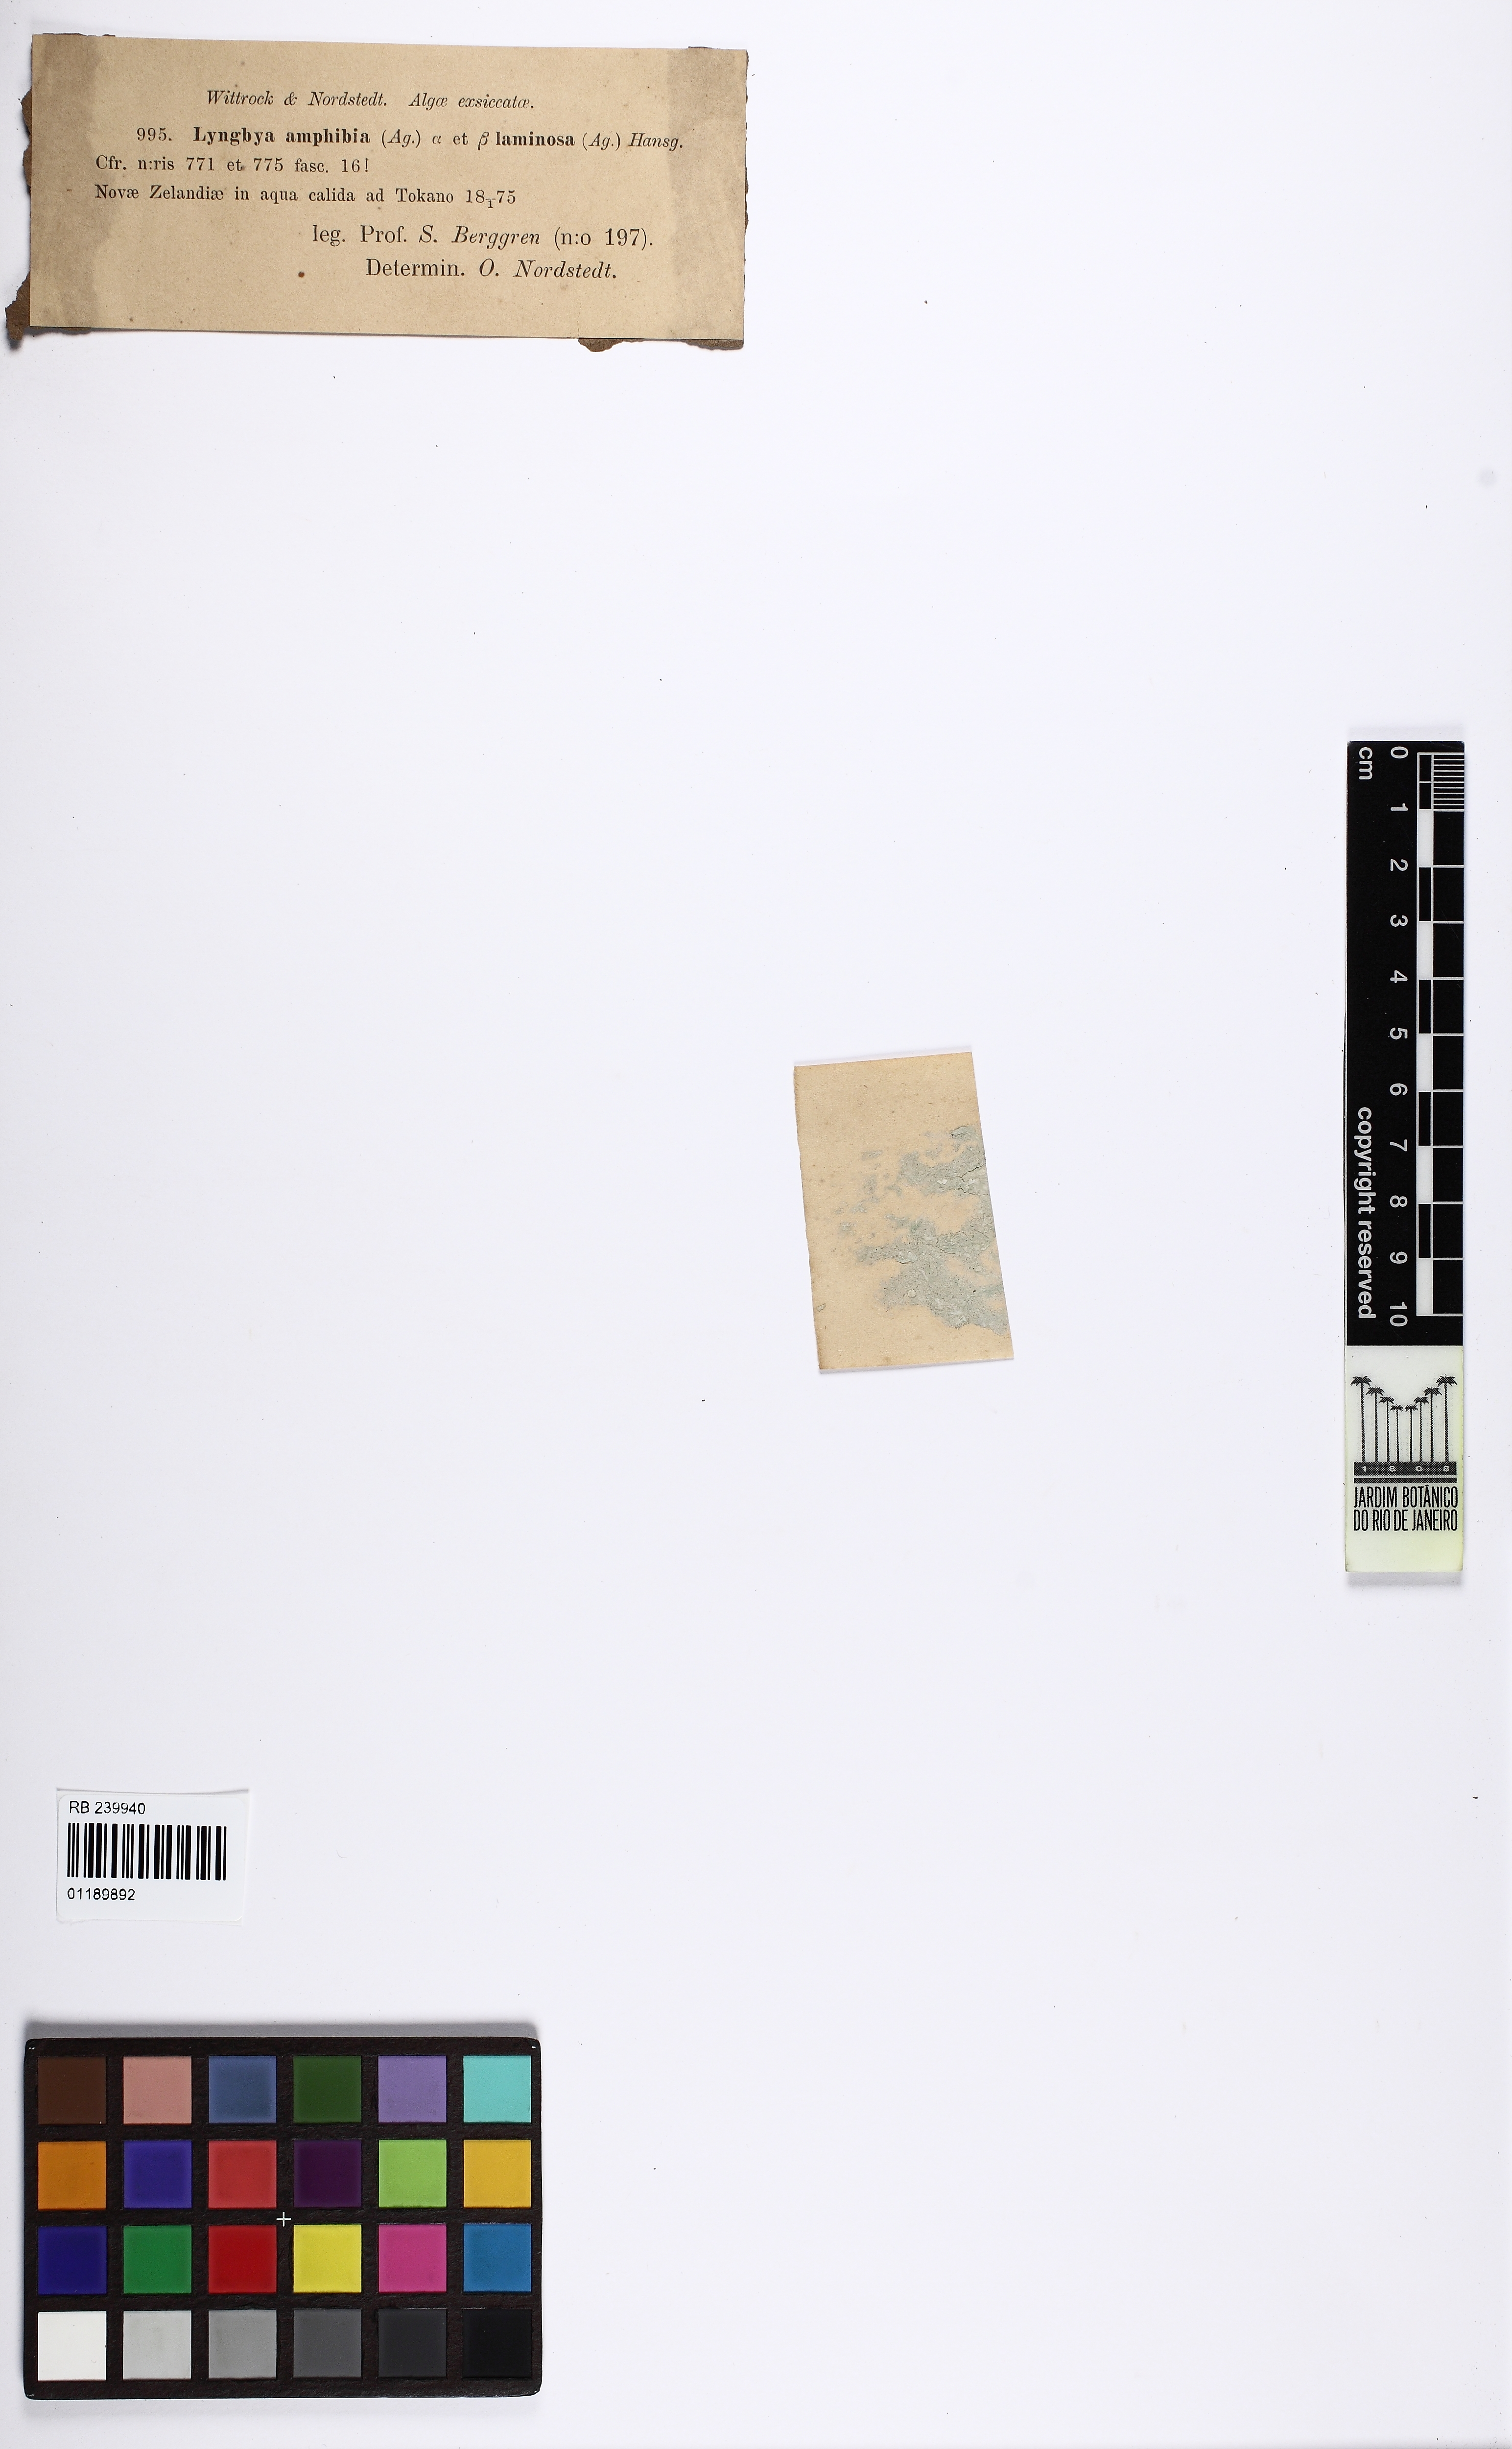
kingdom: Bacteria
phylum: Cyanobacteria
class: Cyanobacteriia
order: Cyanobacteriales
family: Oscillatoriaceae
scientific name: Oscillatoriaceae
